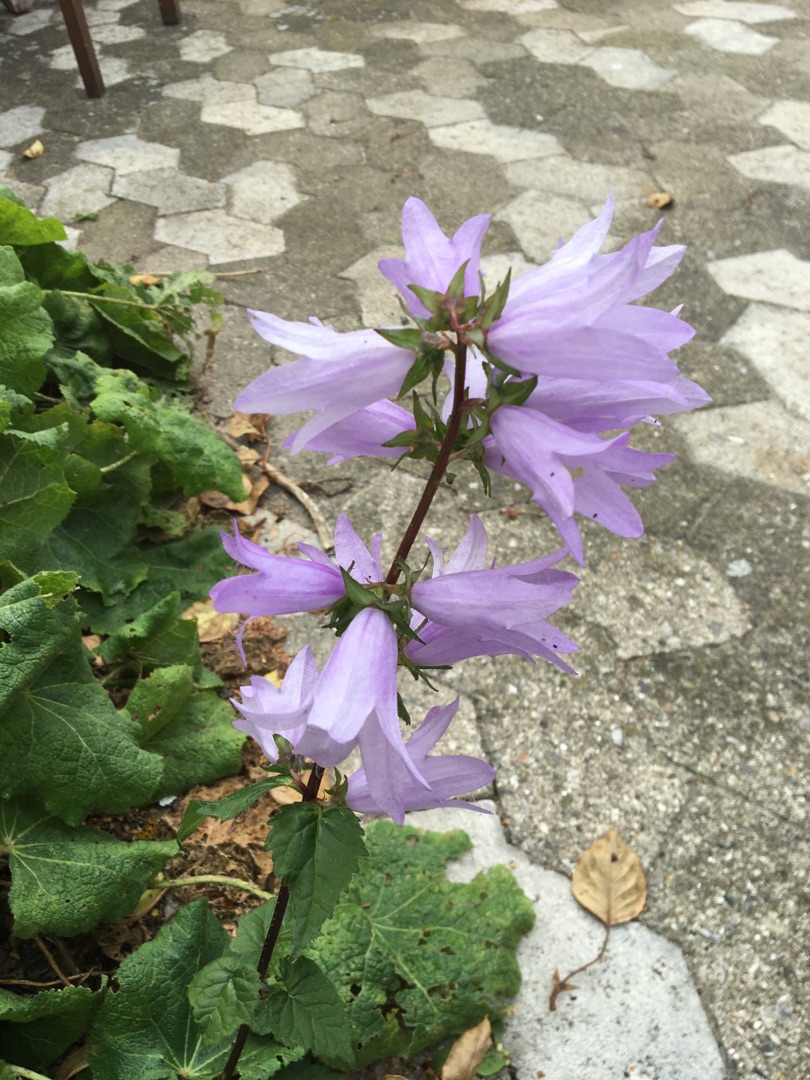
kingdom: Plantae
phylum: Tracheophyta
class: Magnoliopsida
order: Asterales
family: Campanulaceae
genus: Campanula
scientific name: Campanula trachelium
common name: Nælde-klokke
